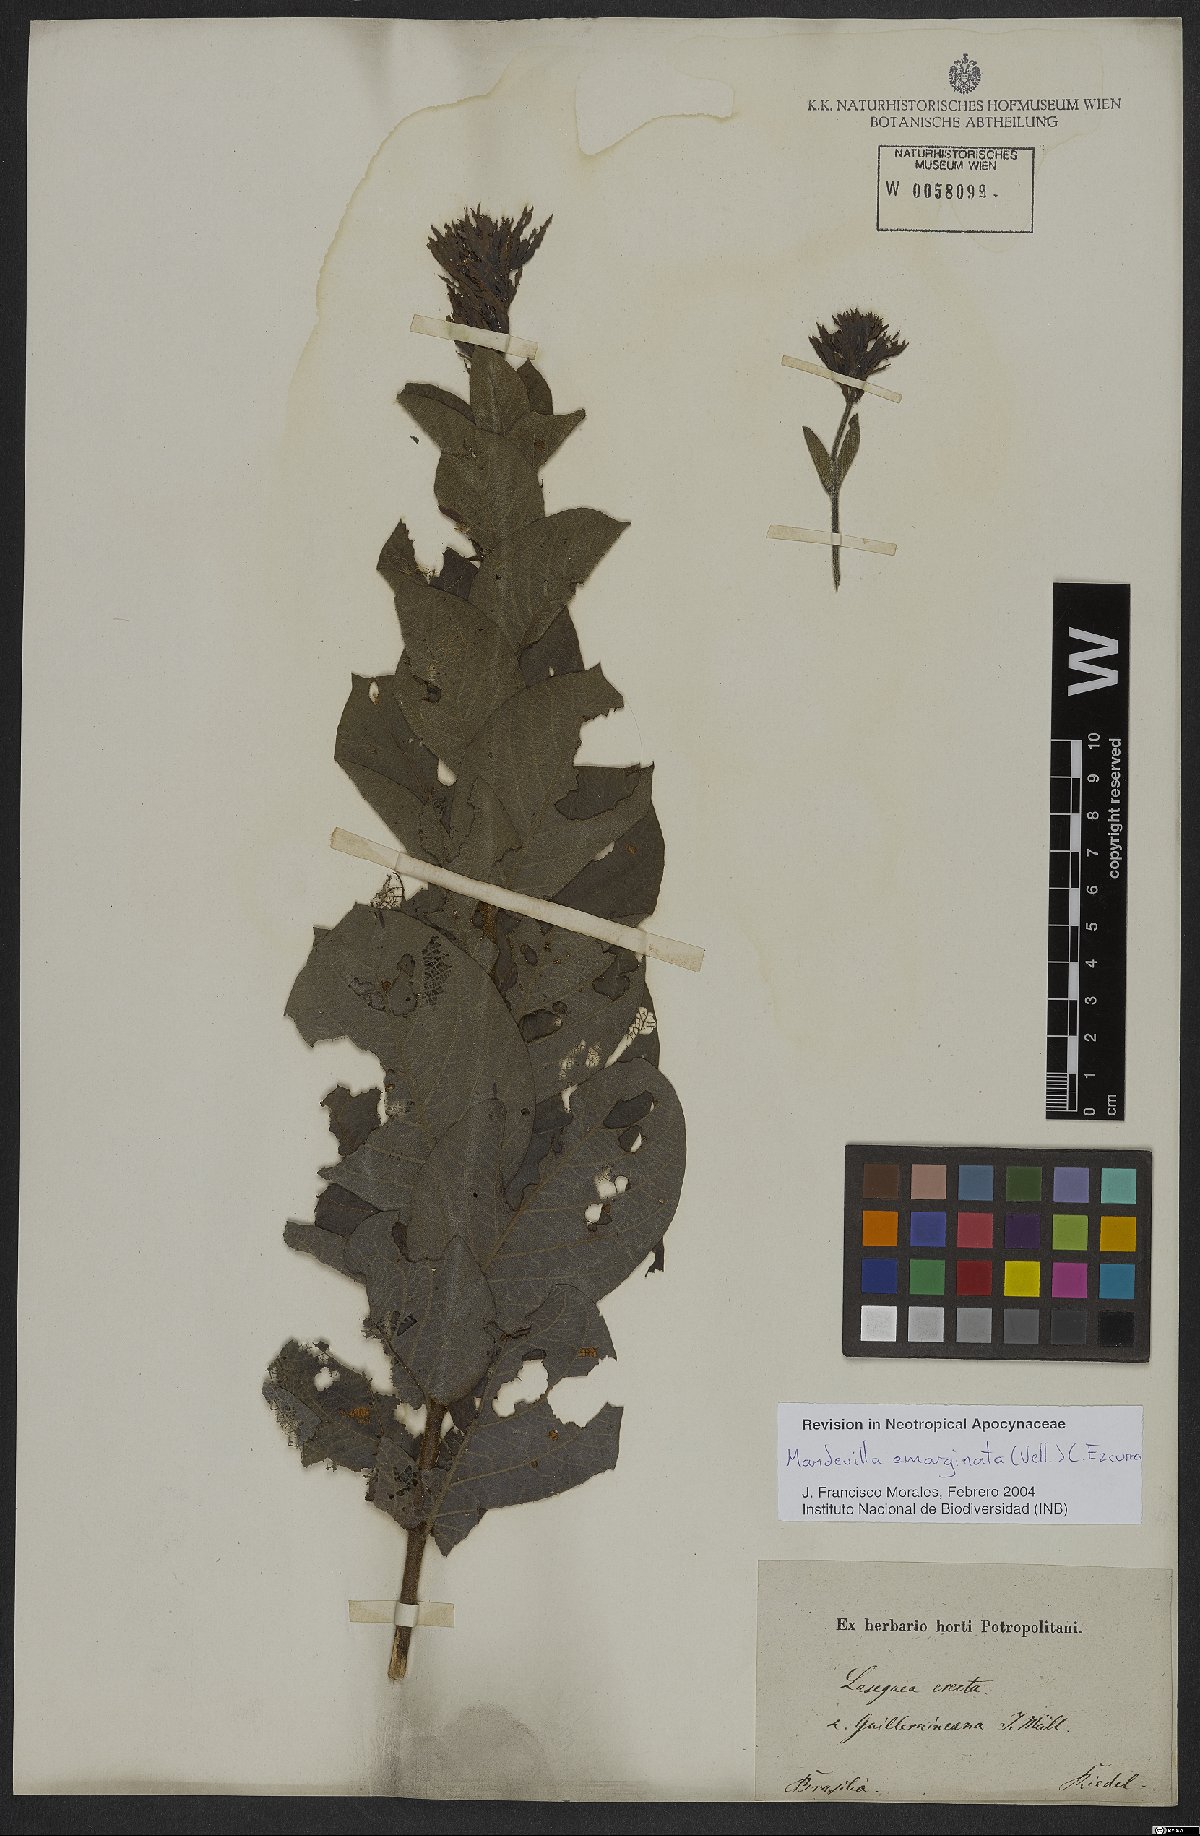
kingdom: Plantae
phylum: Tracheophyta
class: Magnoliopsida
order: Gentianales
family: Apocynaceae
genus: Mandevilla
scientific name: Mandevilla emarginata
